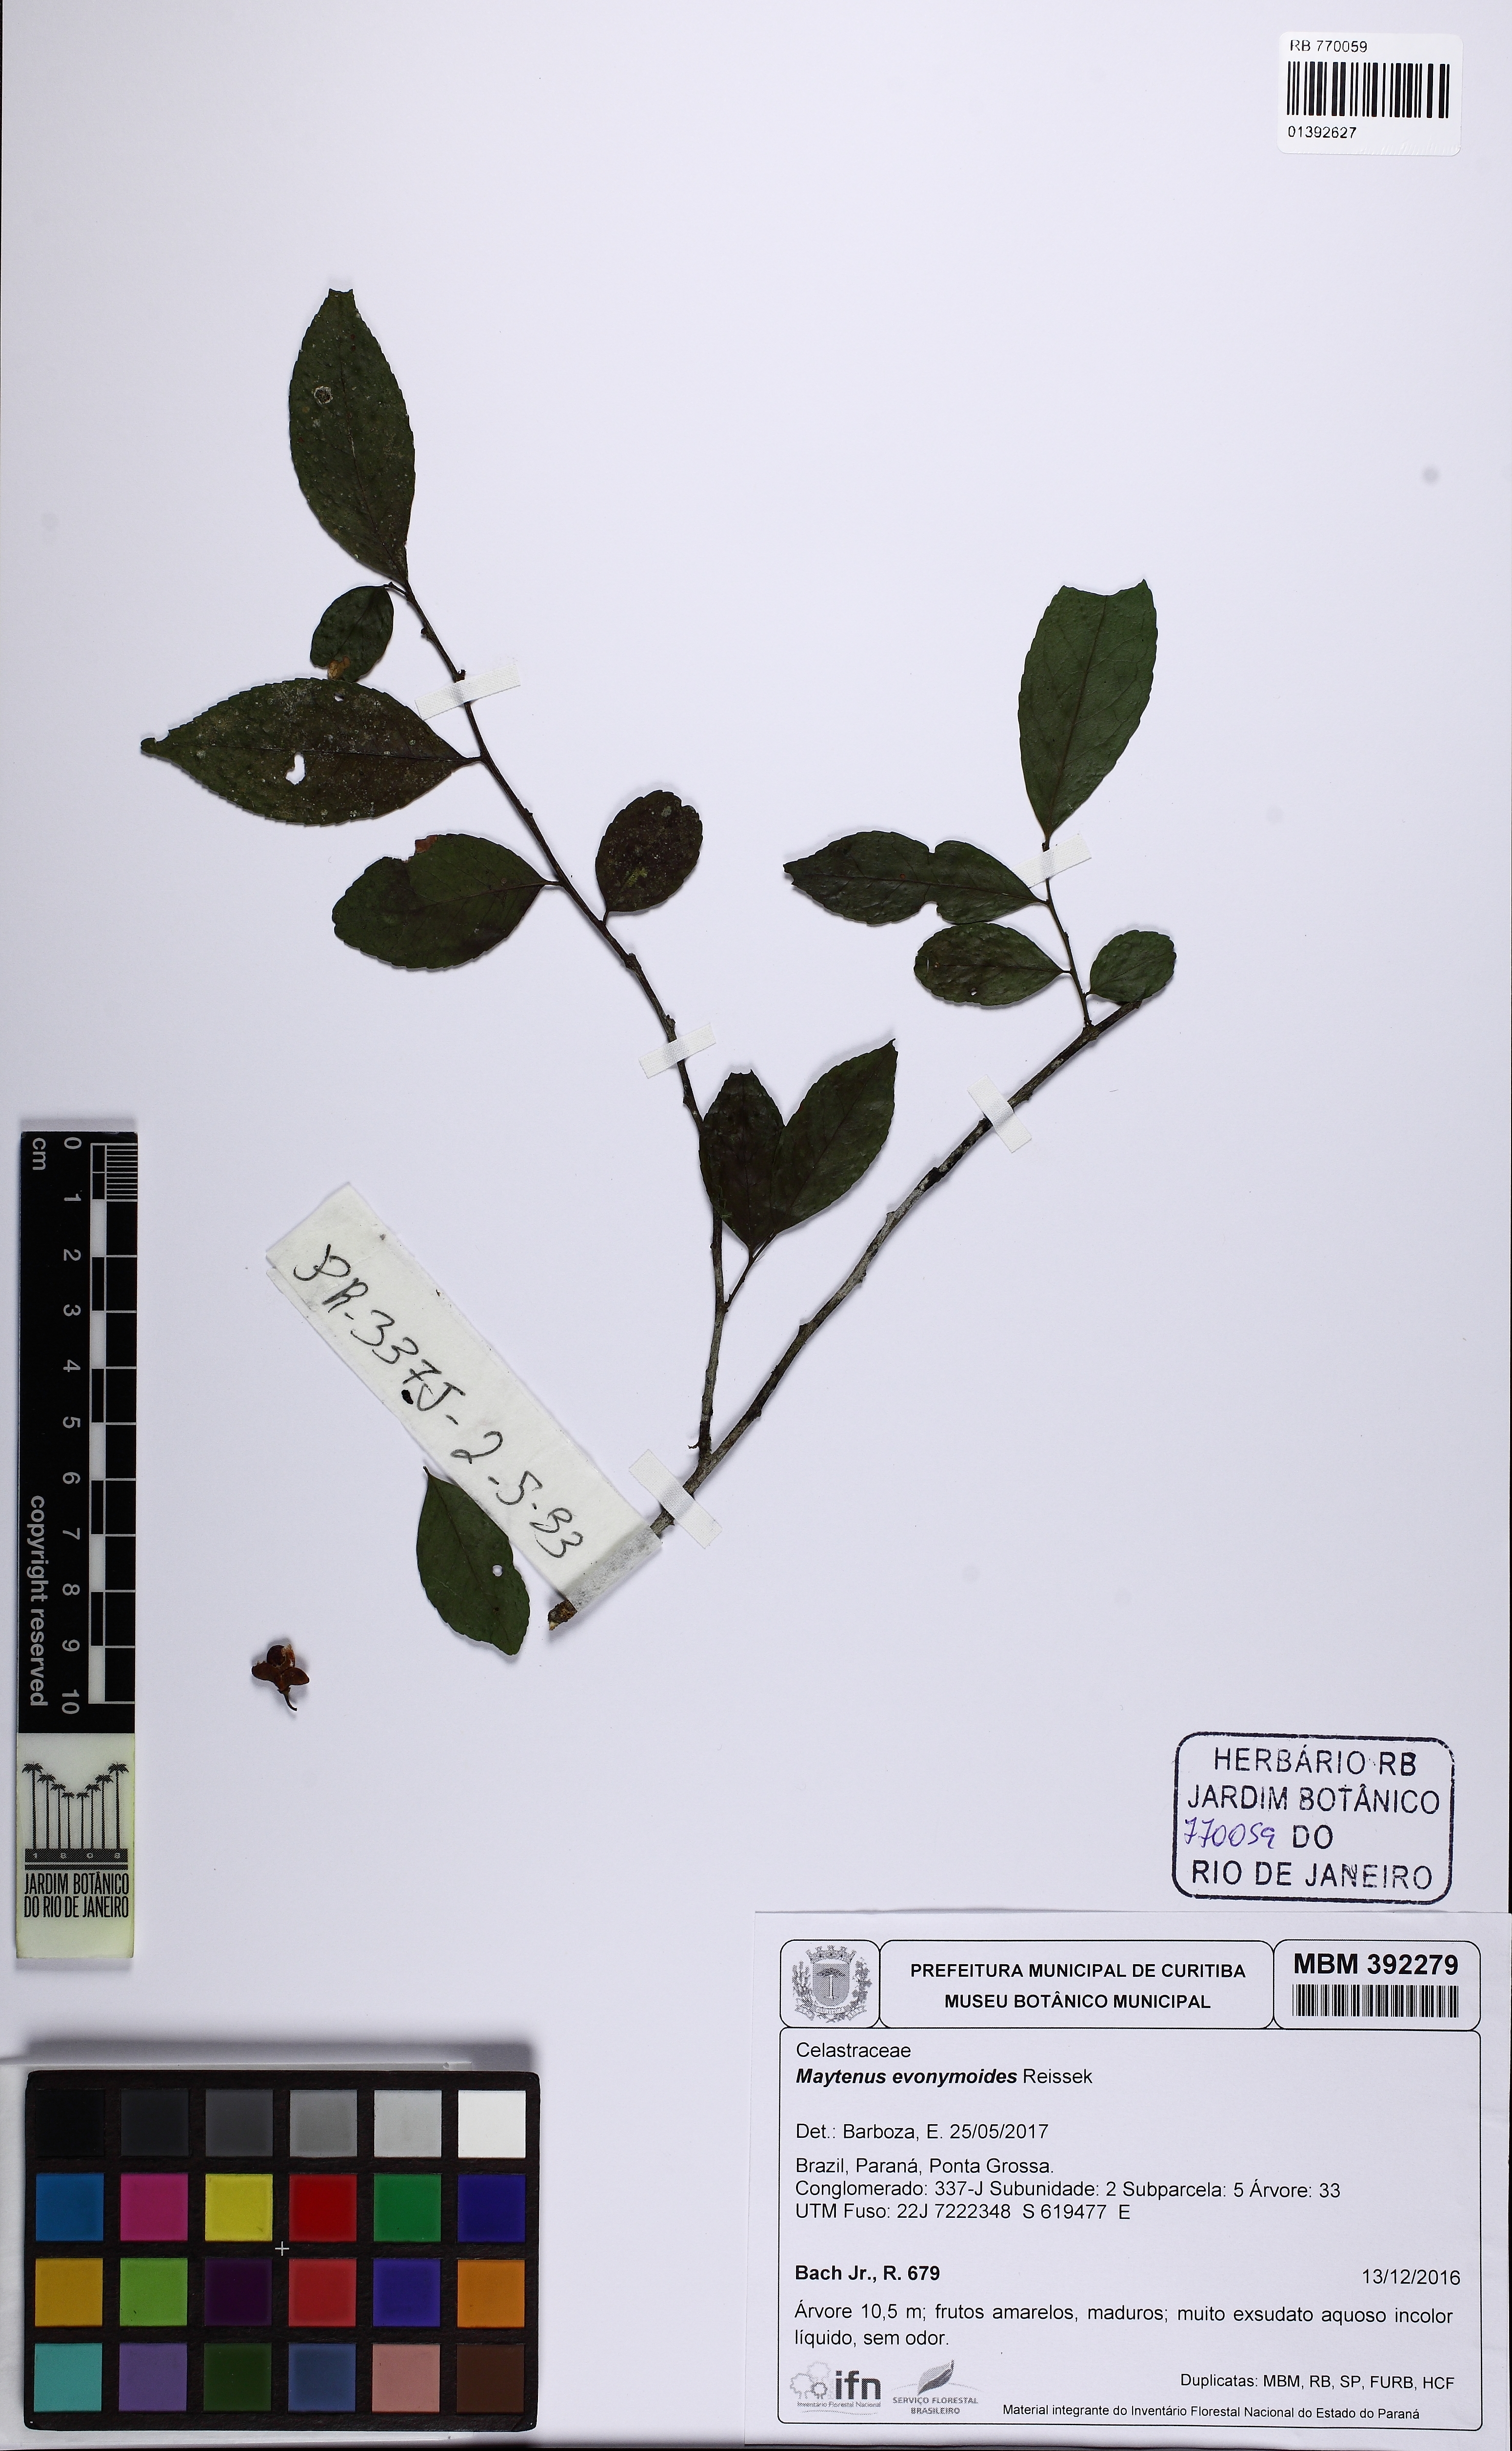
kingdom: Plantae
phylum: Tracheophyta
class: Magnoliopsida
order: Celastrales
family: Celastraceae
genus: Monteverdia
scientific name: Monteverdia evonymoides
